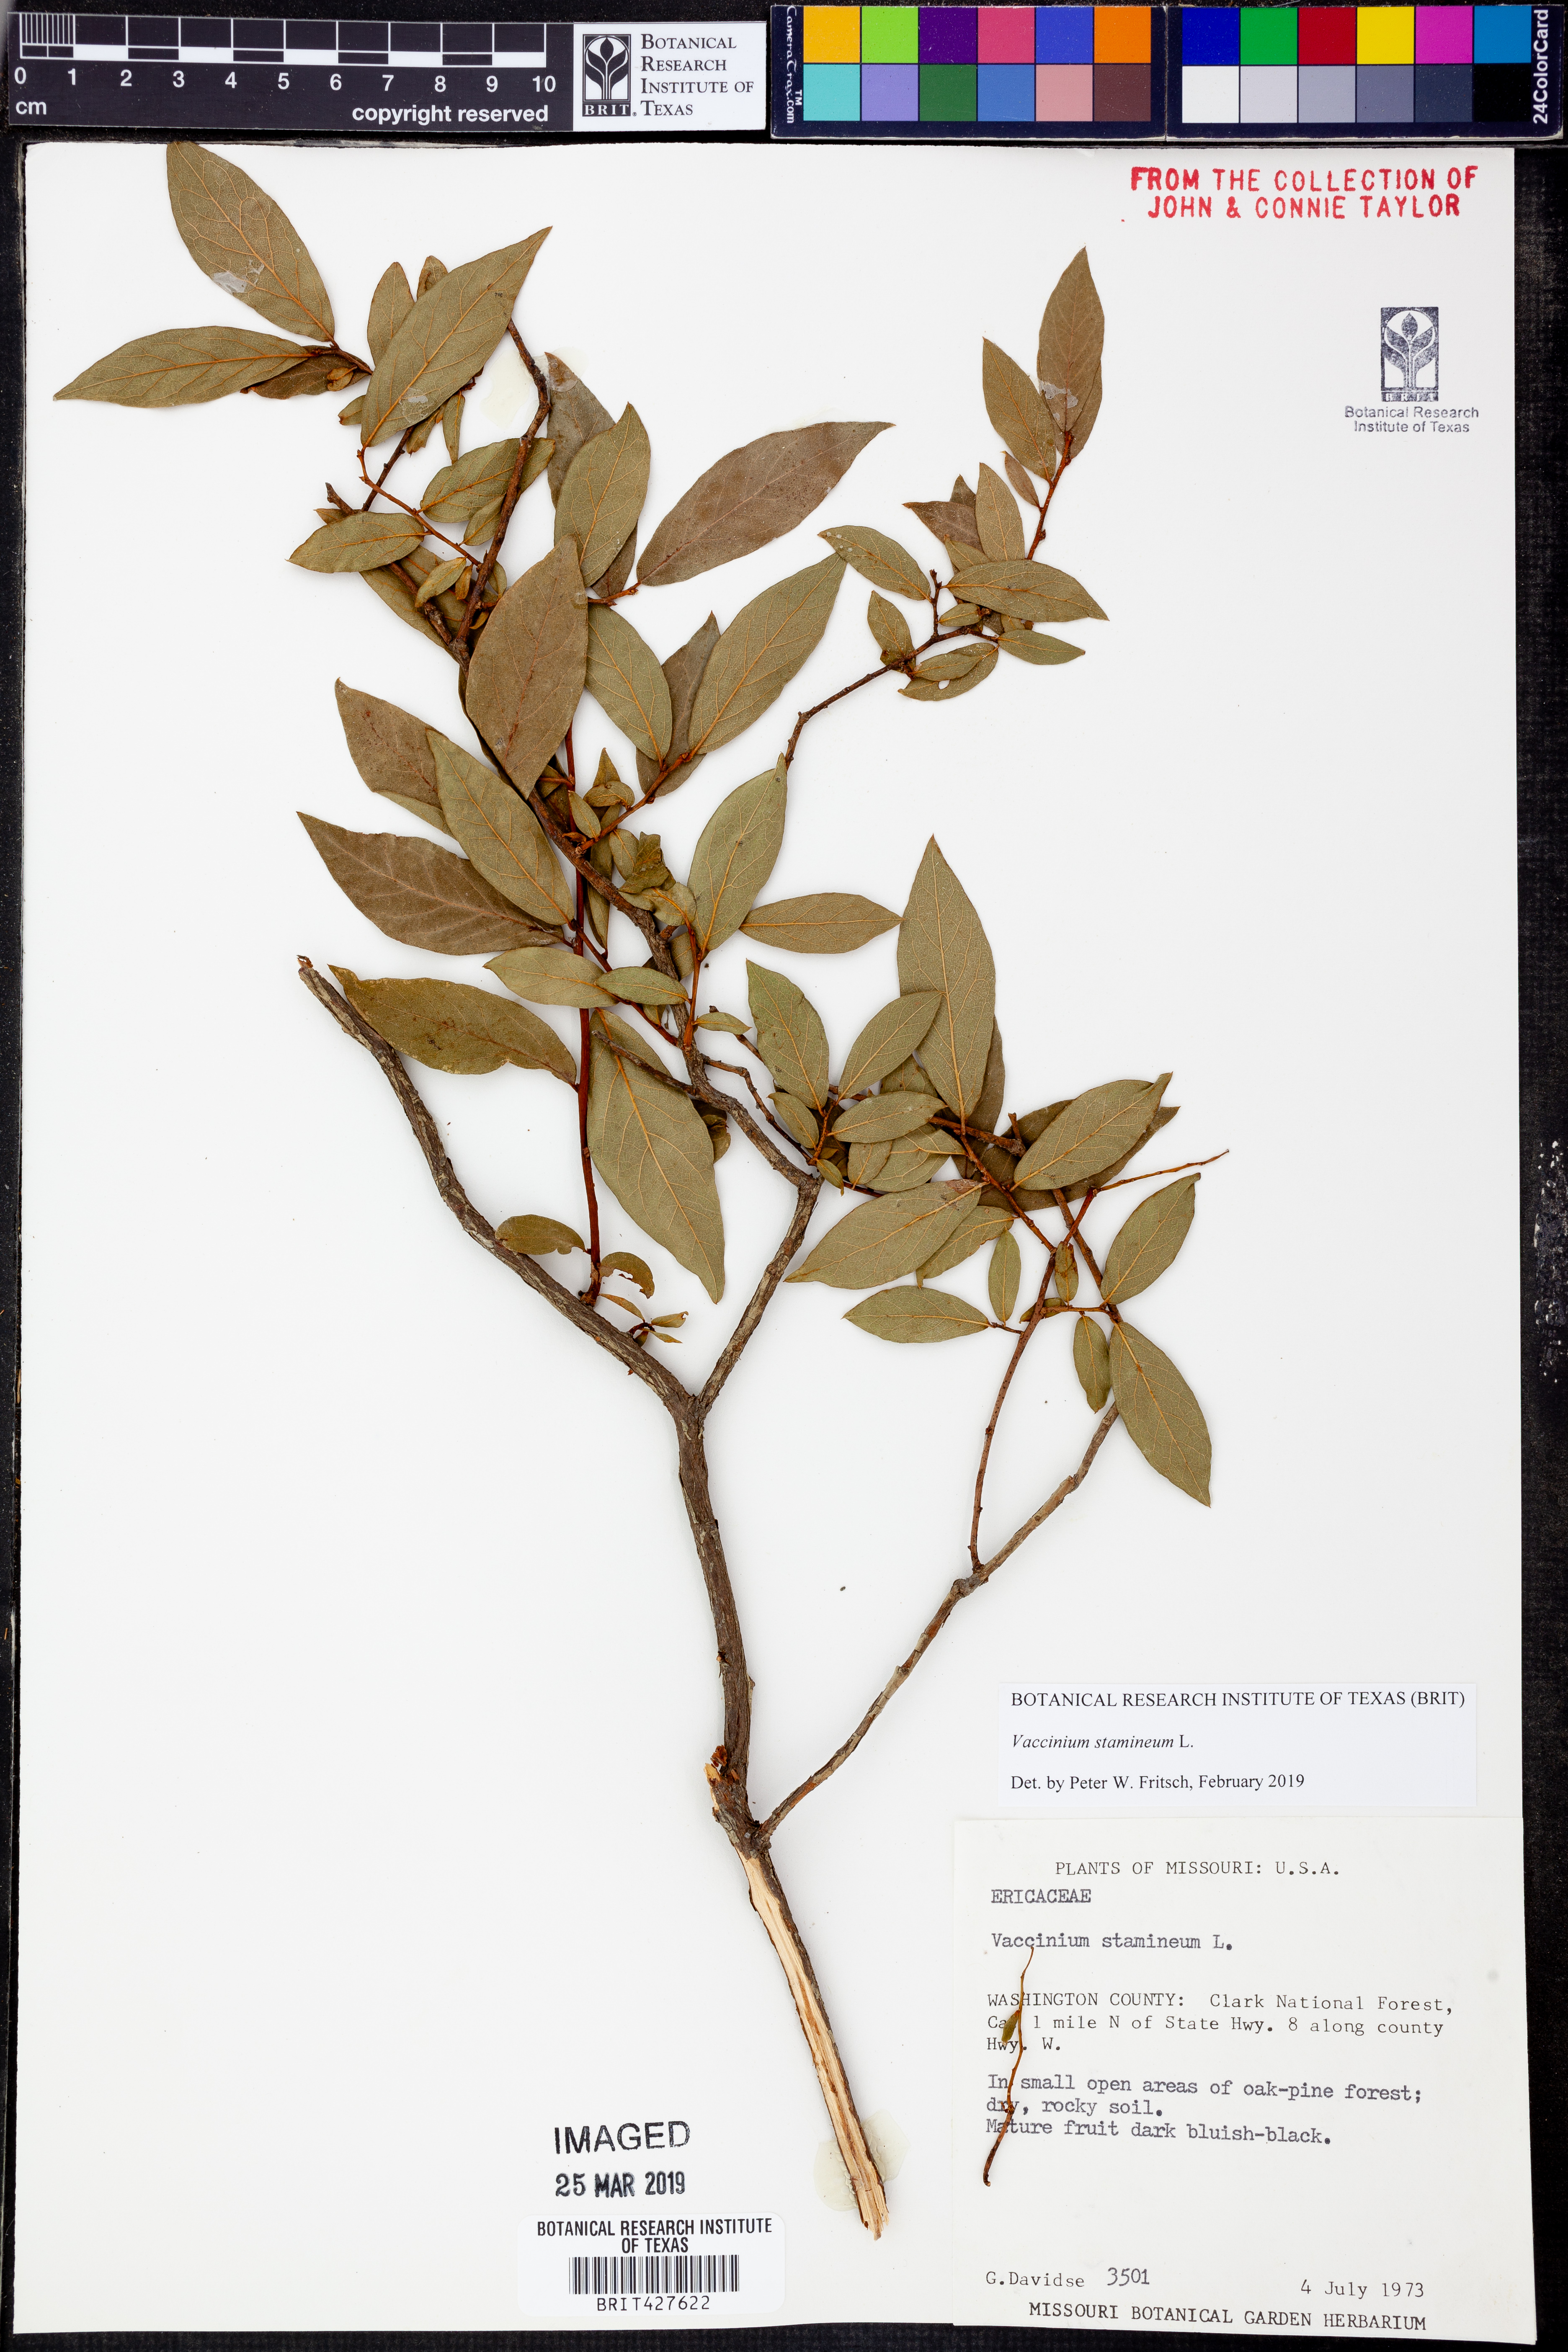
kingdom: Plantae
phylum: Tracheophyta
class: Magnoliopsida
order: Ericales
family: Ericaceae
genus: Vaccinium
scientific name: Vaccinium stamineum
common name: Deerberry
